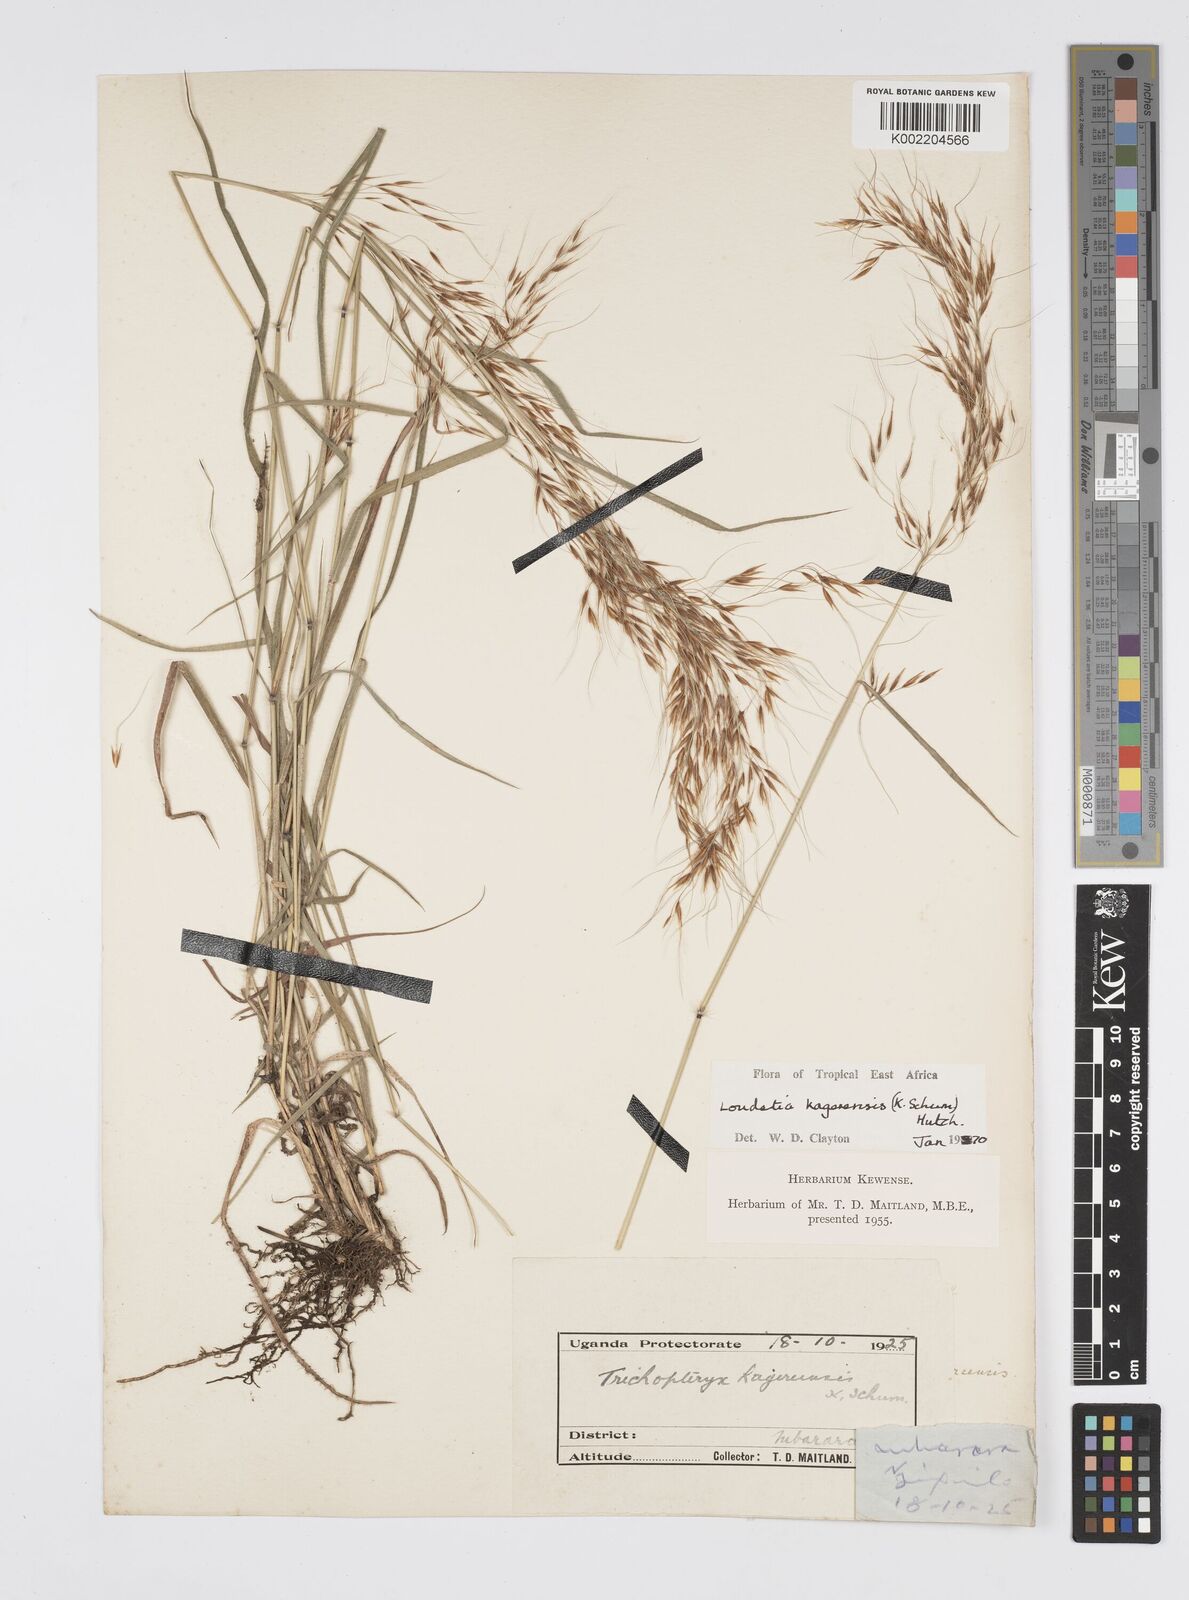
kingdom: Plantae
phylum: Tracheophyta
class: Liliopsida
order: Poales
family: Poaceae
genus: Loudetia
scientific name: Loudetia kagerensis
